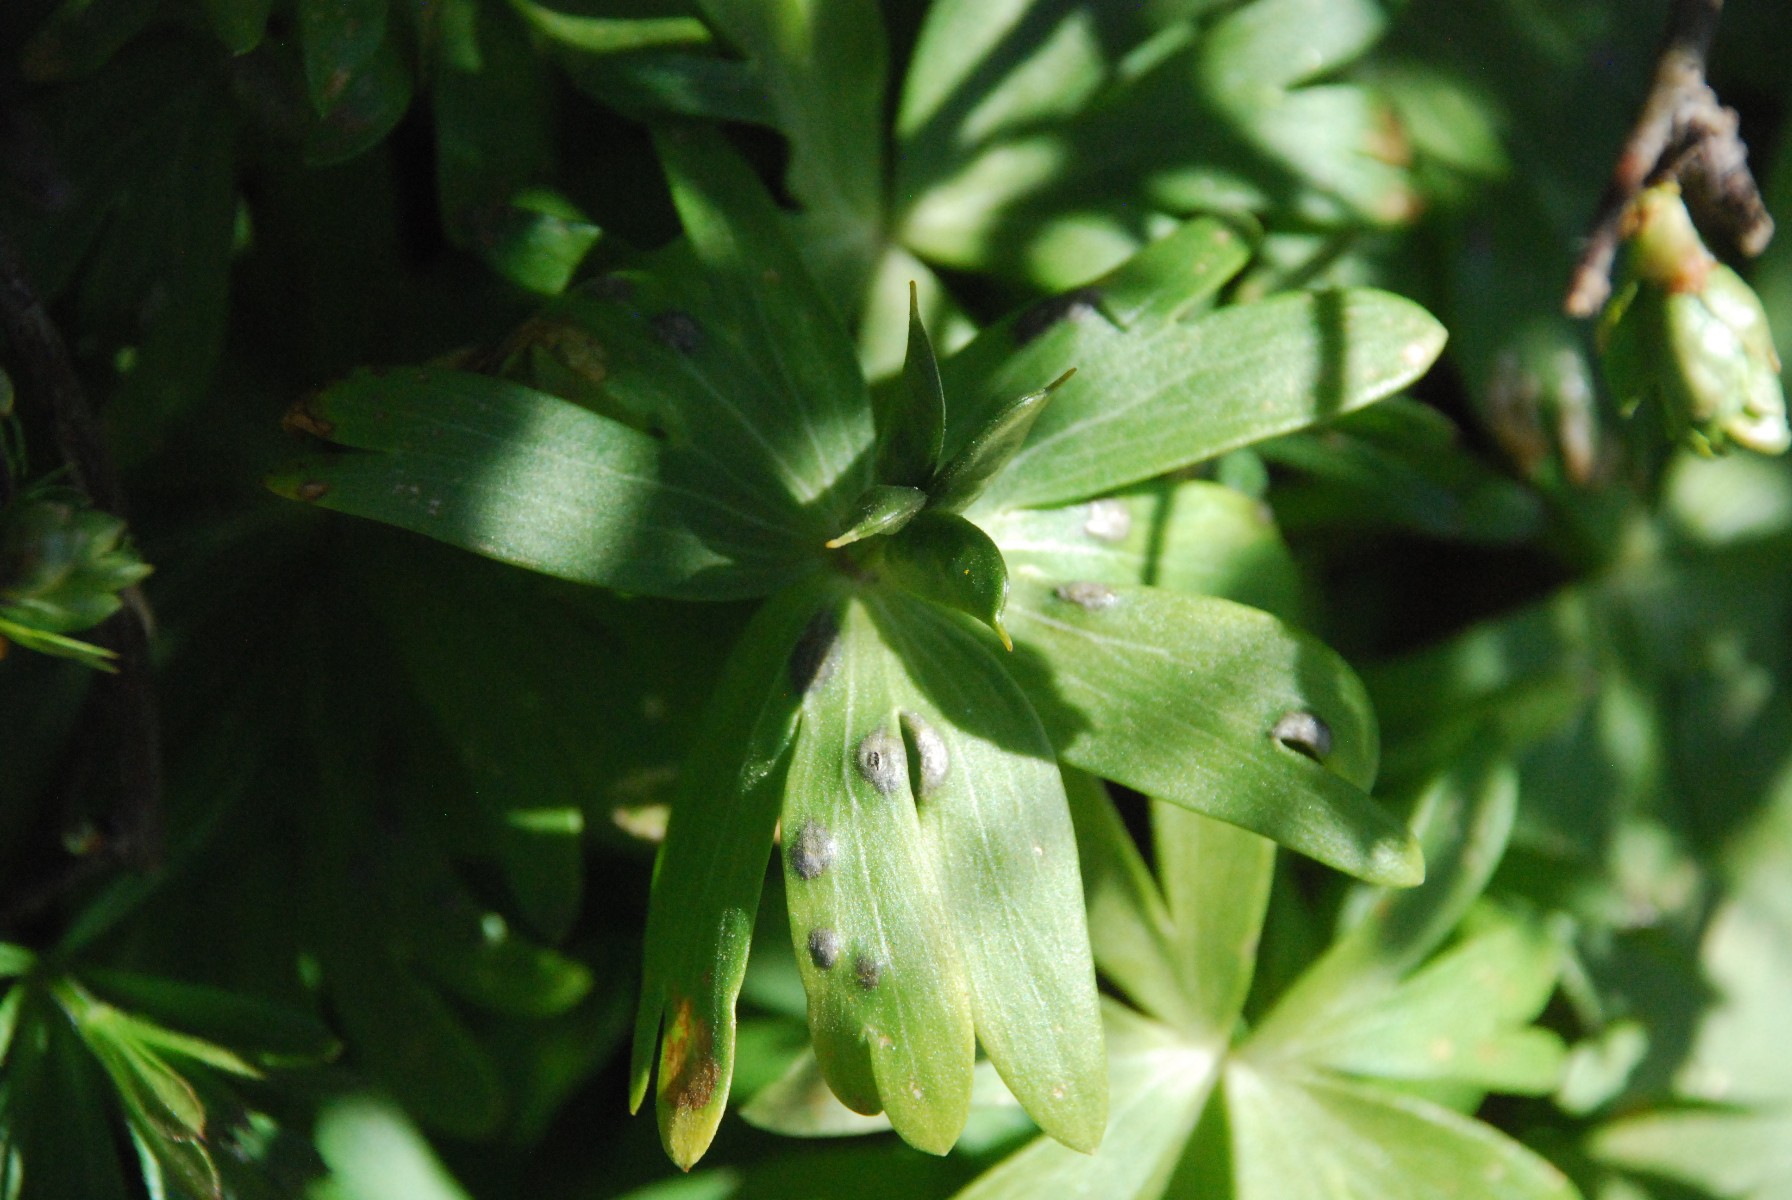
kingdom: Fungi
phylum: Basidiomycota
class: Ustilaginomycetes
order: Urocystidales
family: Urocystidaceae
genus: Urocystis
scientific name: Urocystis eranthidis
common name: erantis-brand
